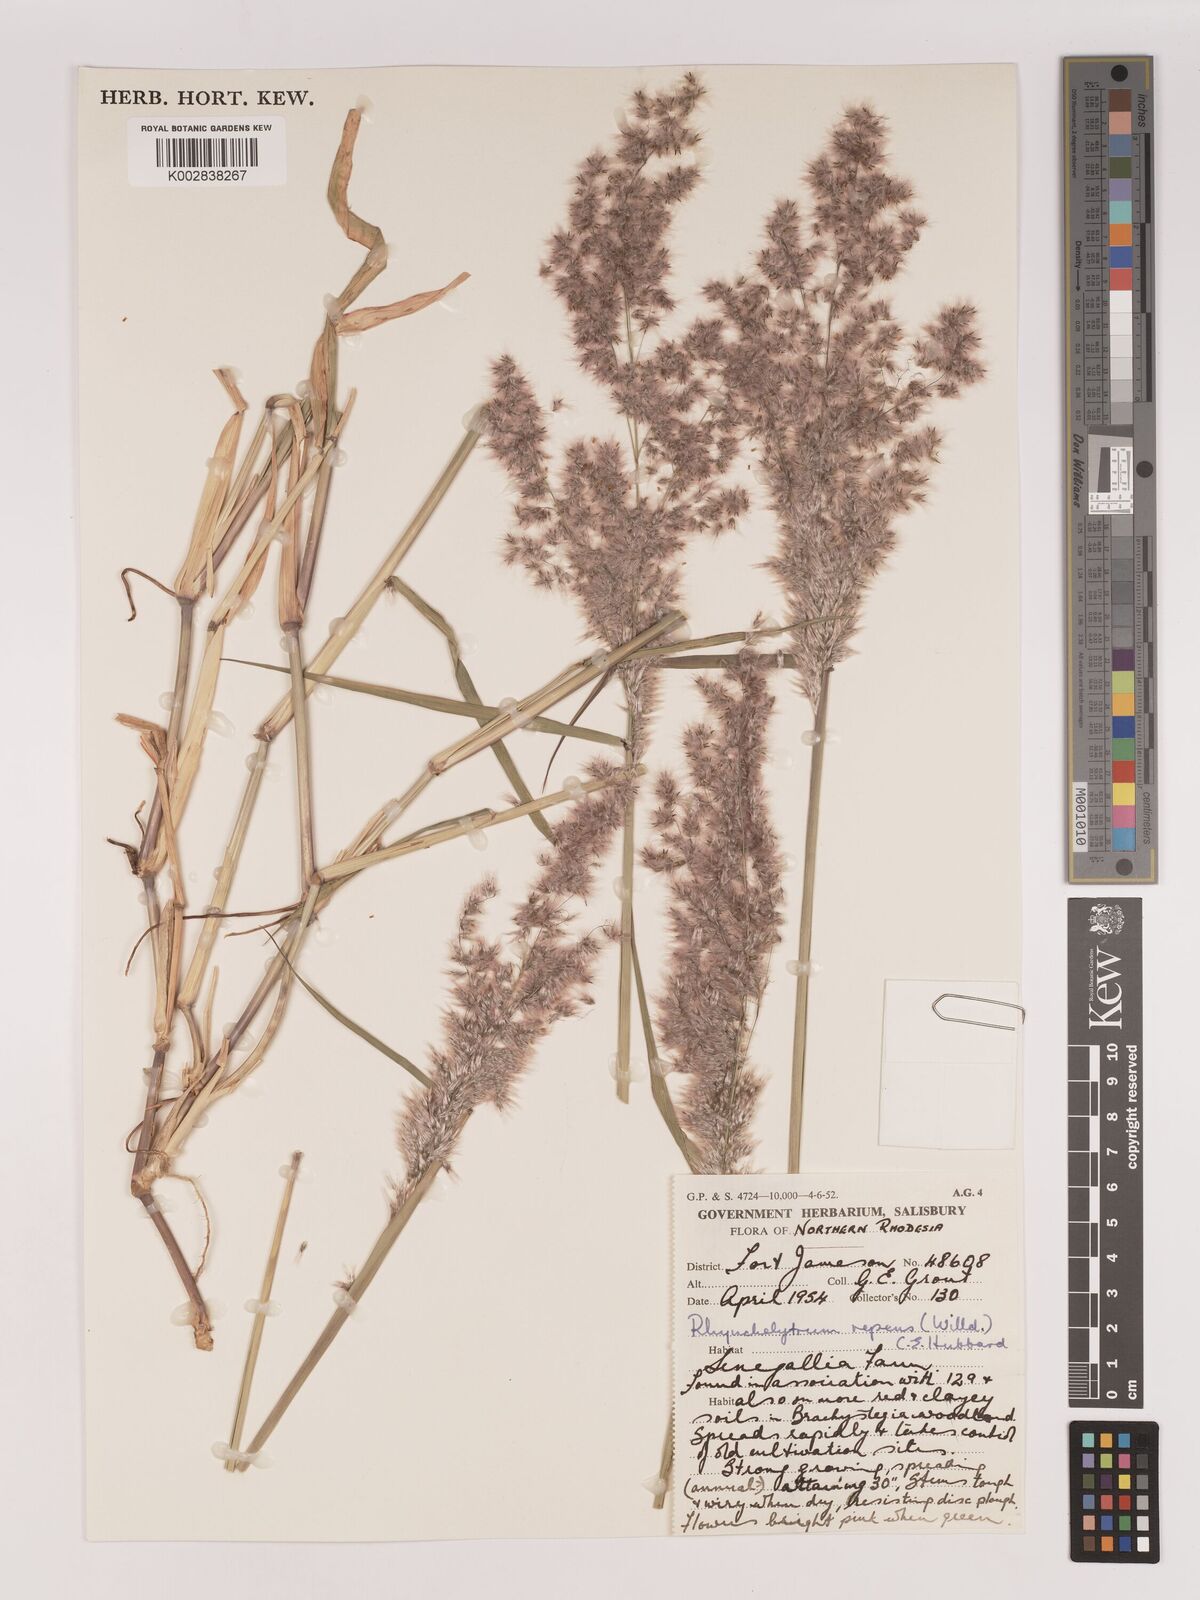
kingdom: Plantae
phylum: Tracheophyta
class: Liliopsida
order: Poales
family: Poaceae
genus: Melinis
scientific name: Melinis repens
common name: Rose natal grass
